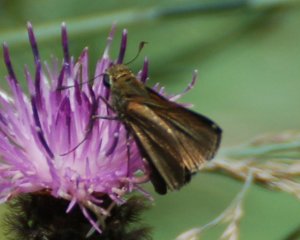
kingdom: Animalia
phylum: Arthropoda
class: Insecta
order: Lepidoptera
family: Hesperiidae
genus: Euphyes
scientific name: Euphyes vestris
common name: Dun Skipper
